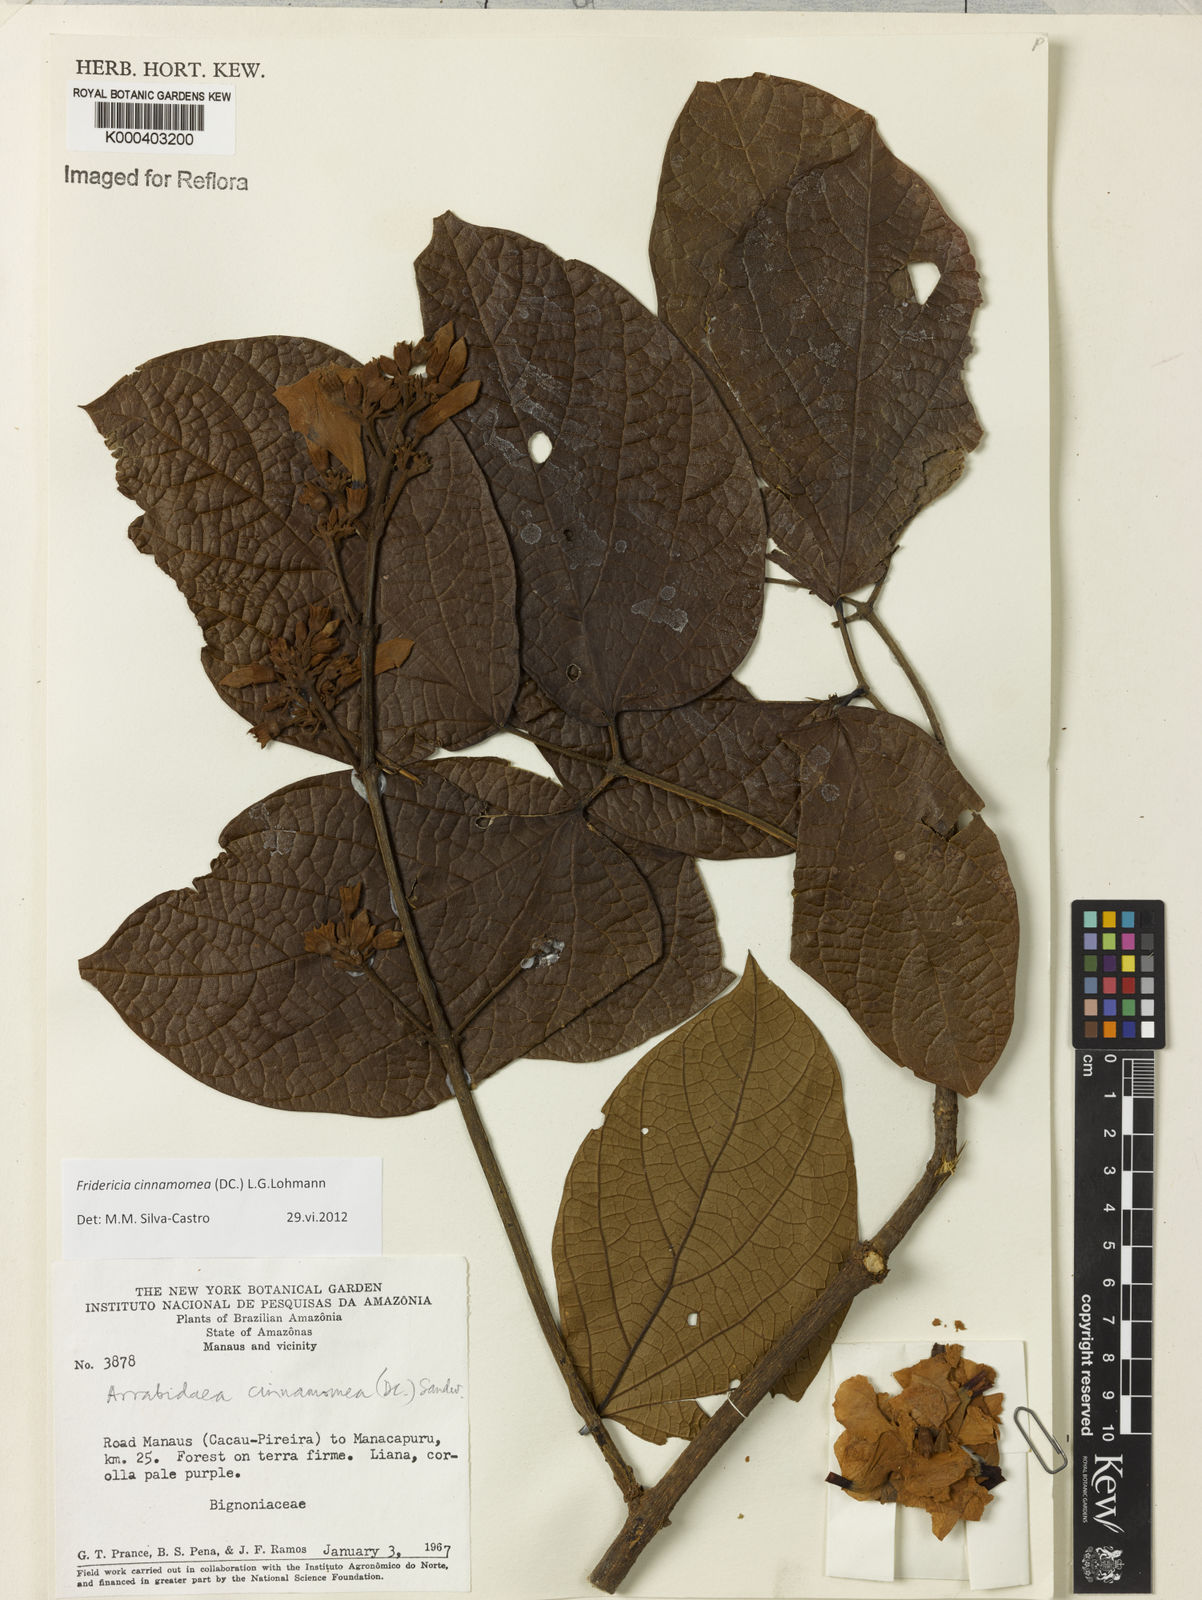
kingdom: Plantae
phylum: Tracheophyta
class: Magnoliopsida
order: Lamiales
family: Bignoniaceae
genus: Fridericia
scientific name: Fridericia cinnamomea
